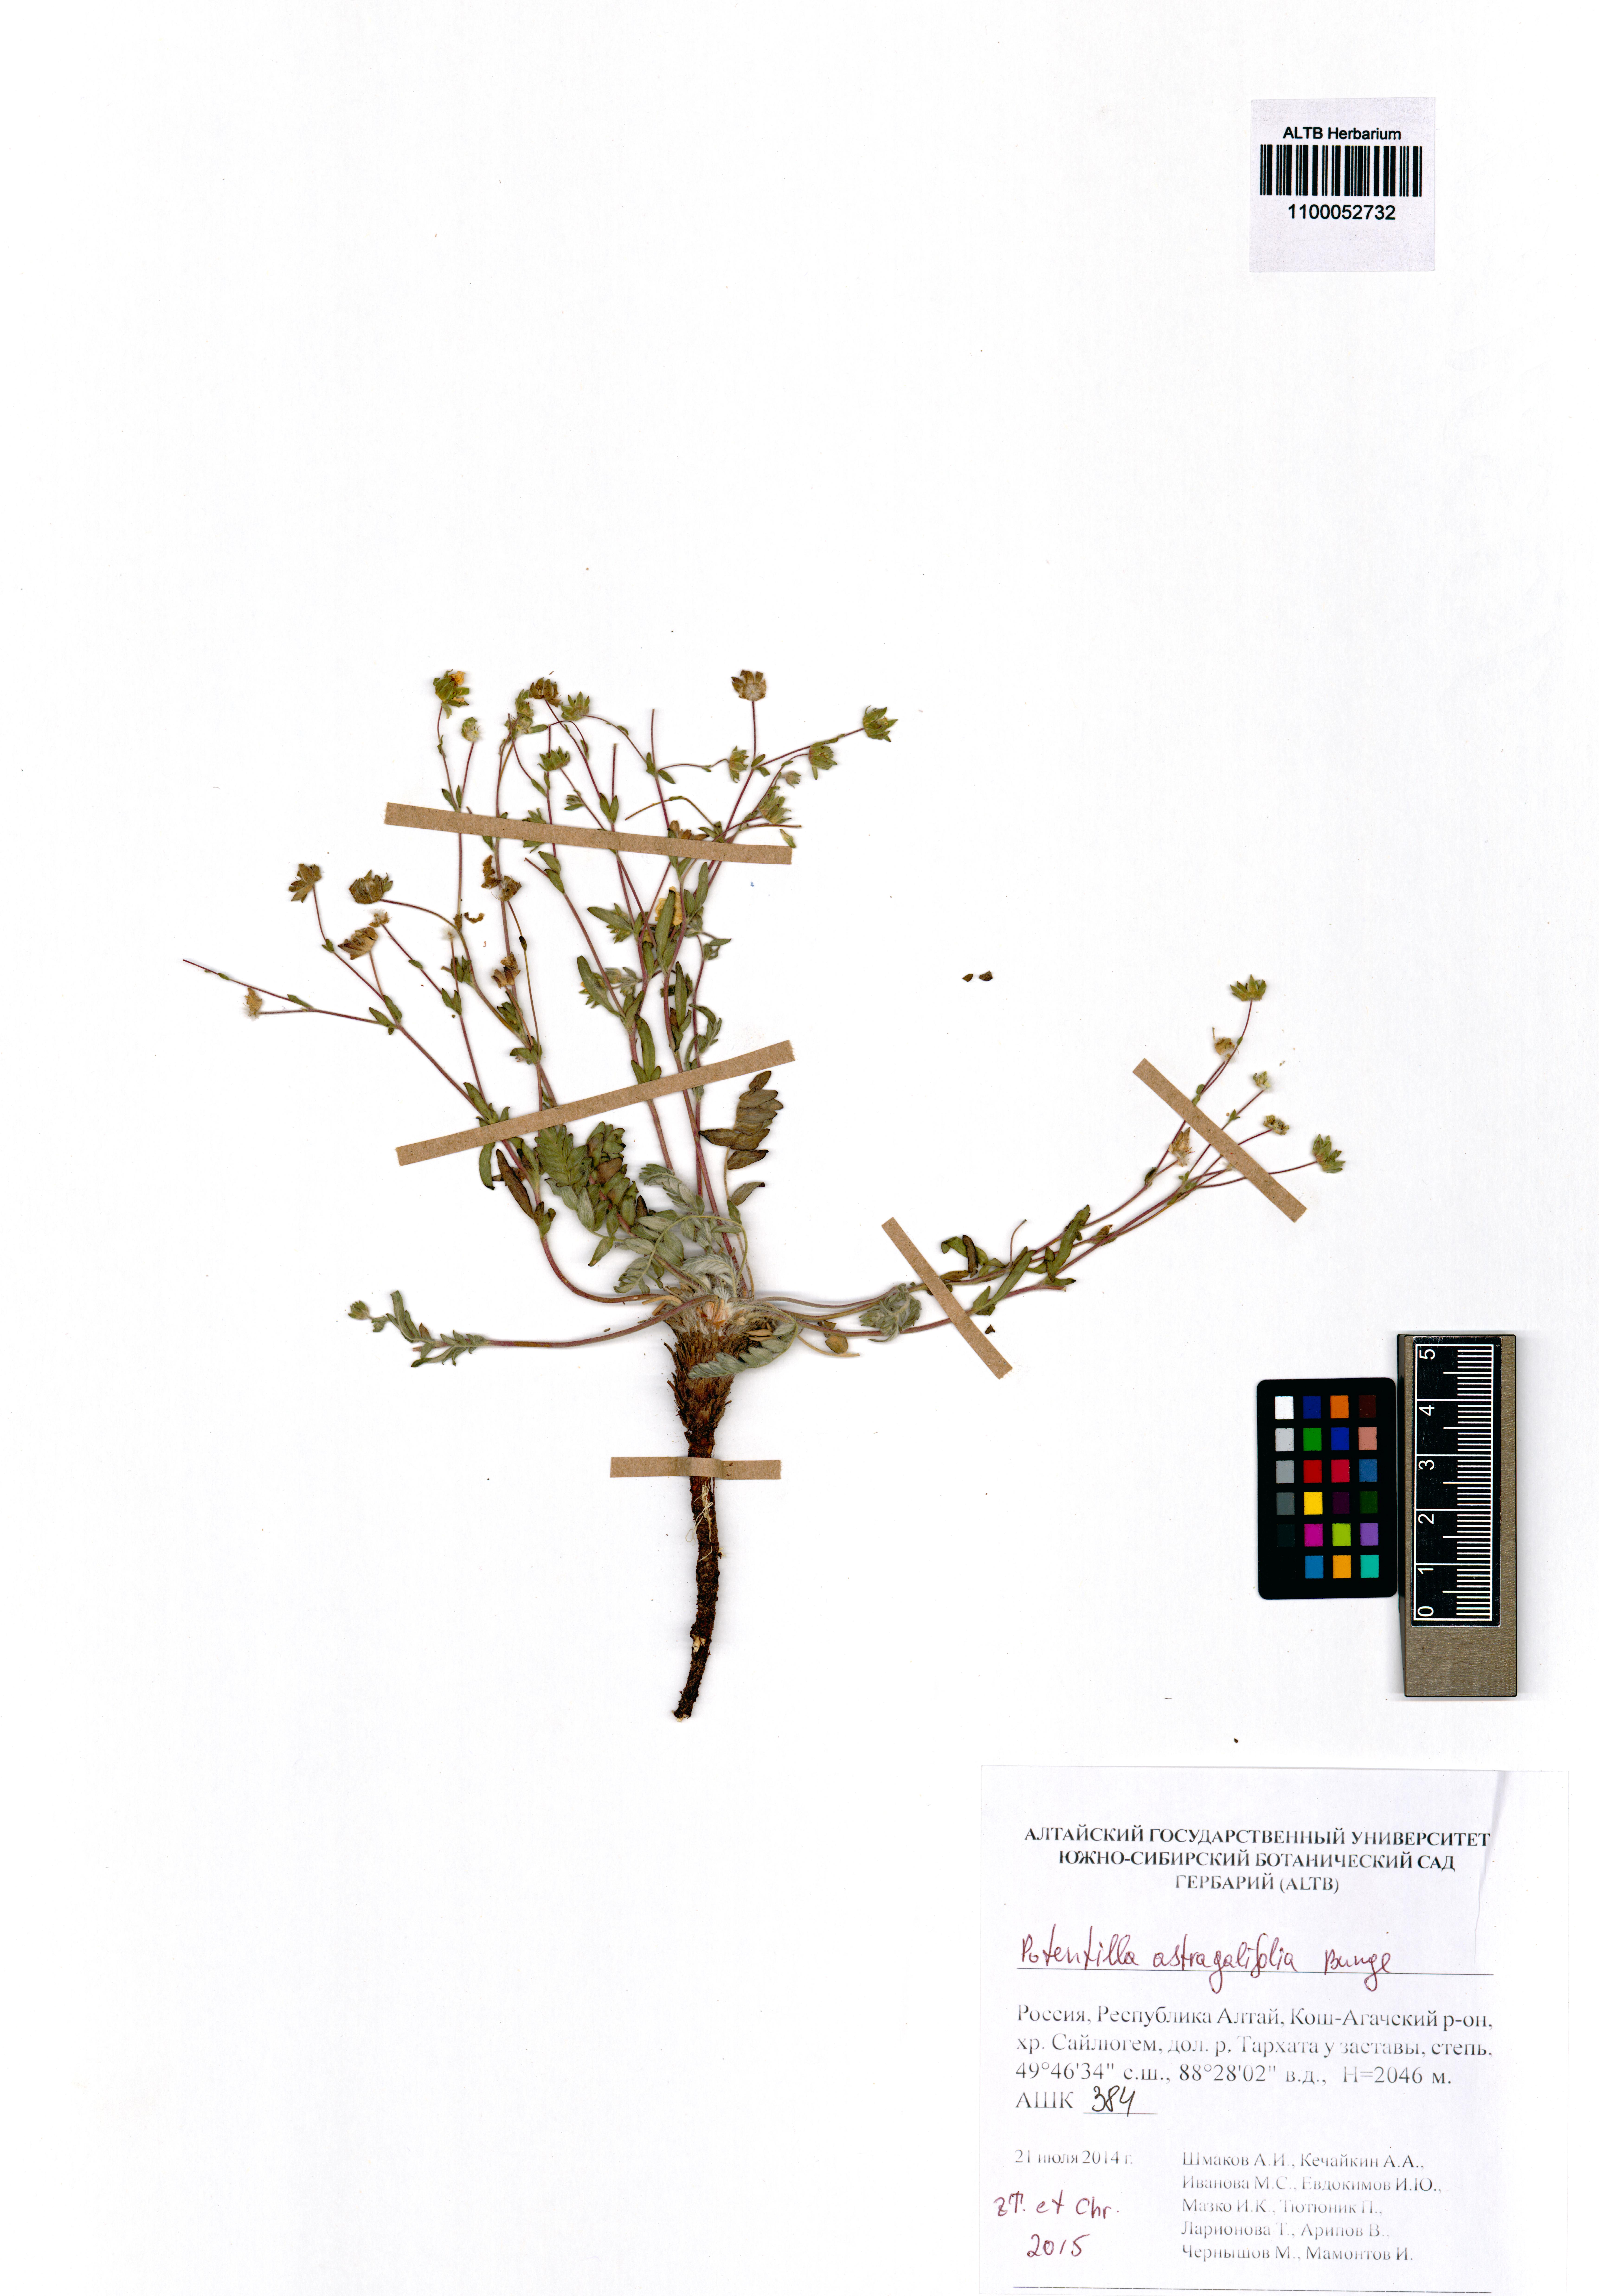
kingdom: Plantae
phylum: Tracheophyta
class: Magnoliopsida
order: Rosales
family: Rosaceae
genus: Potentilla
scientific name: Potentilla astragalifolia
